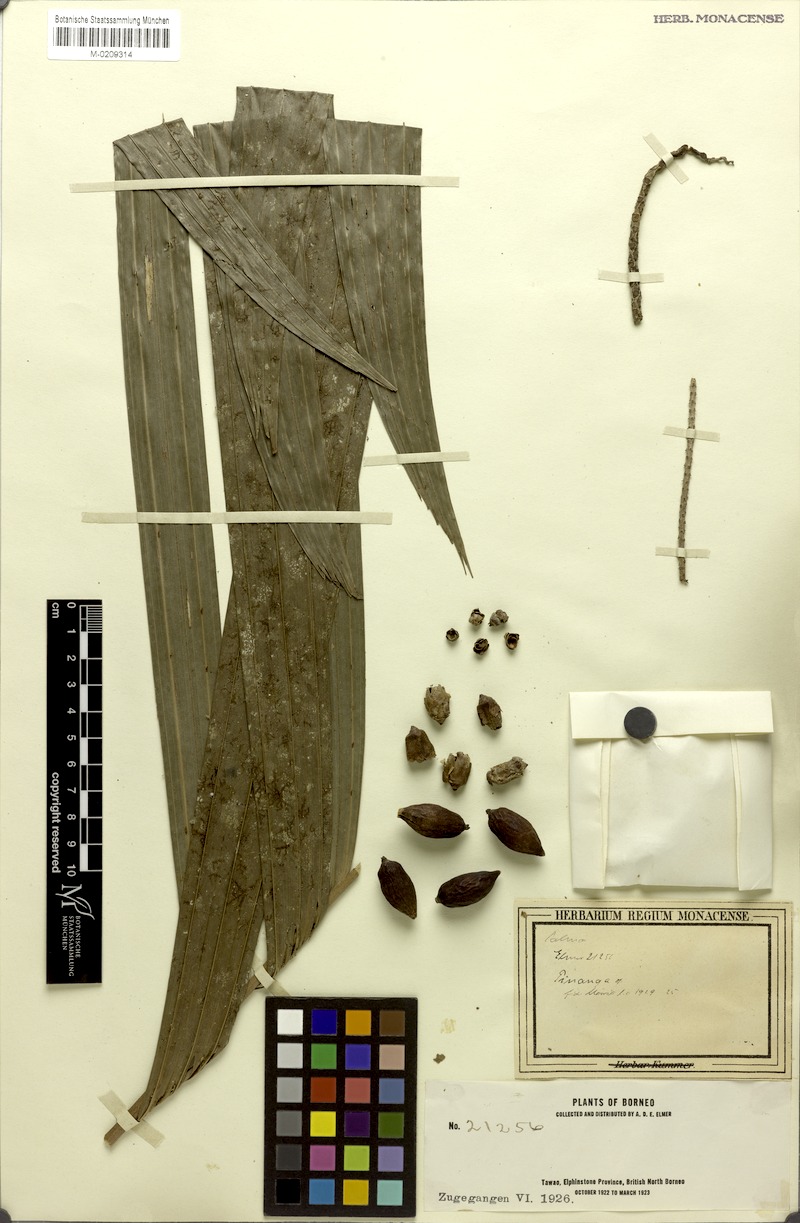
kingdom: Plantae
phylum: Tracheophyta
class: Liliopsida
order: Arecales
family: Arecaceae
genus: Pinanga
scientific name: Pinanga
